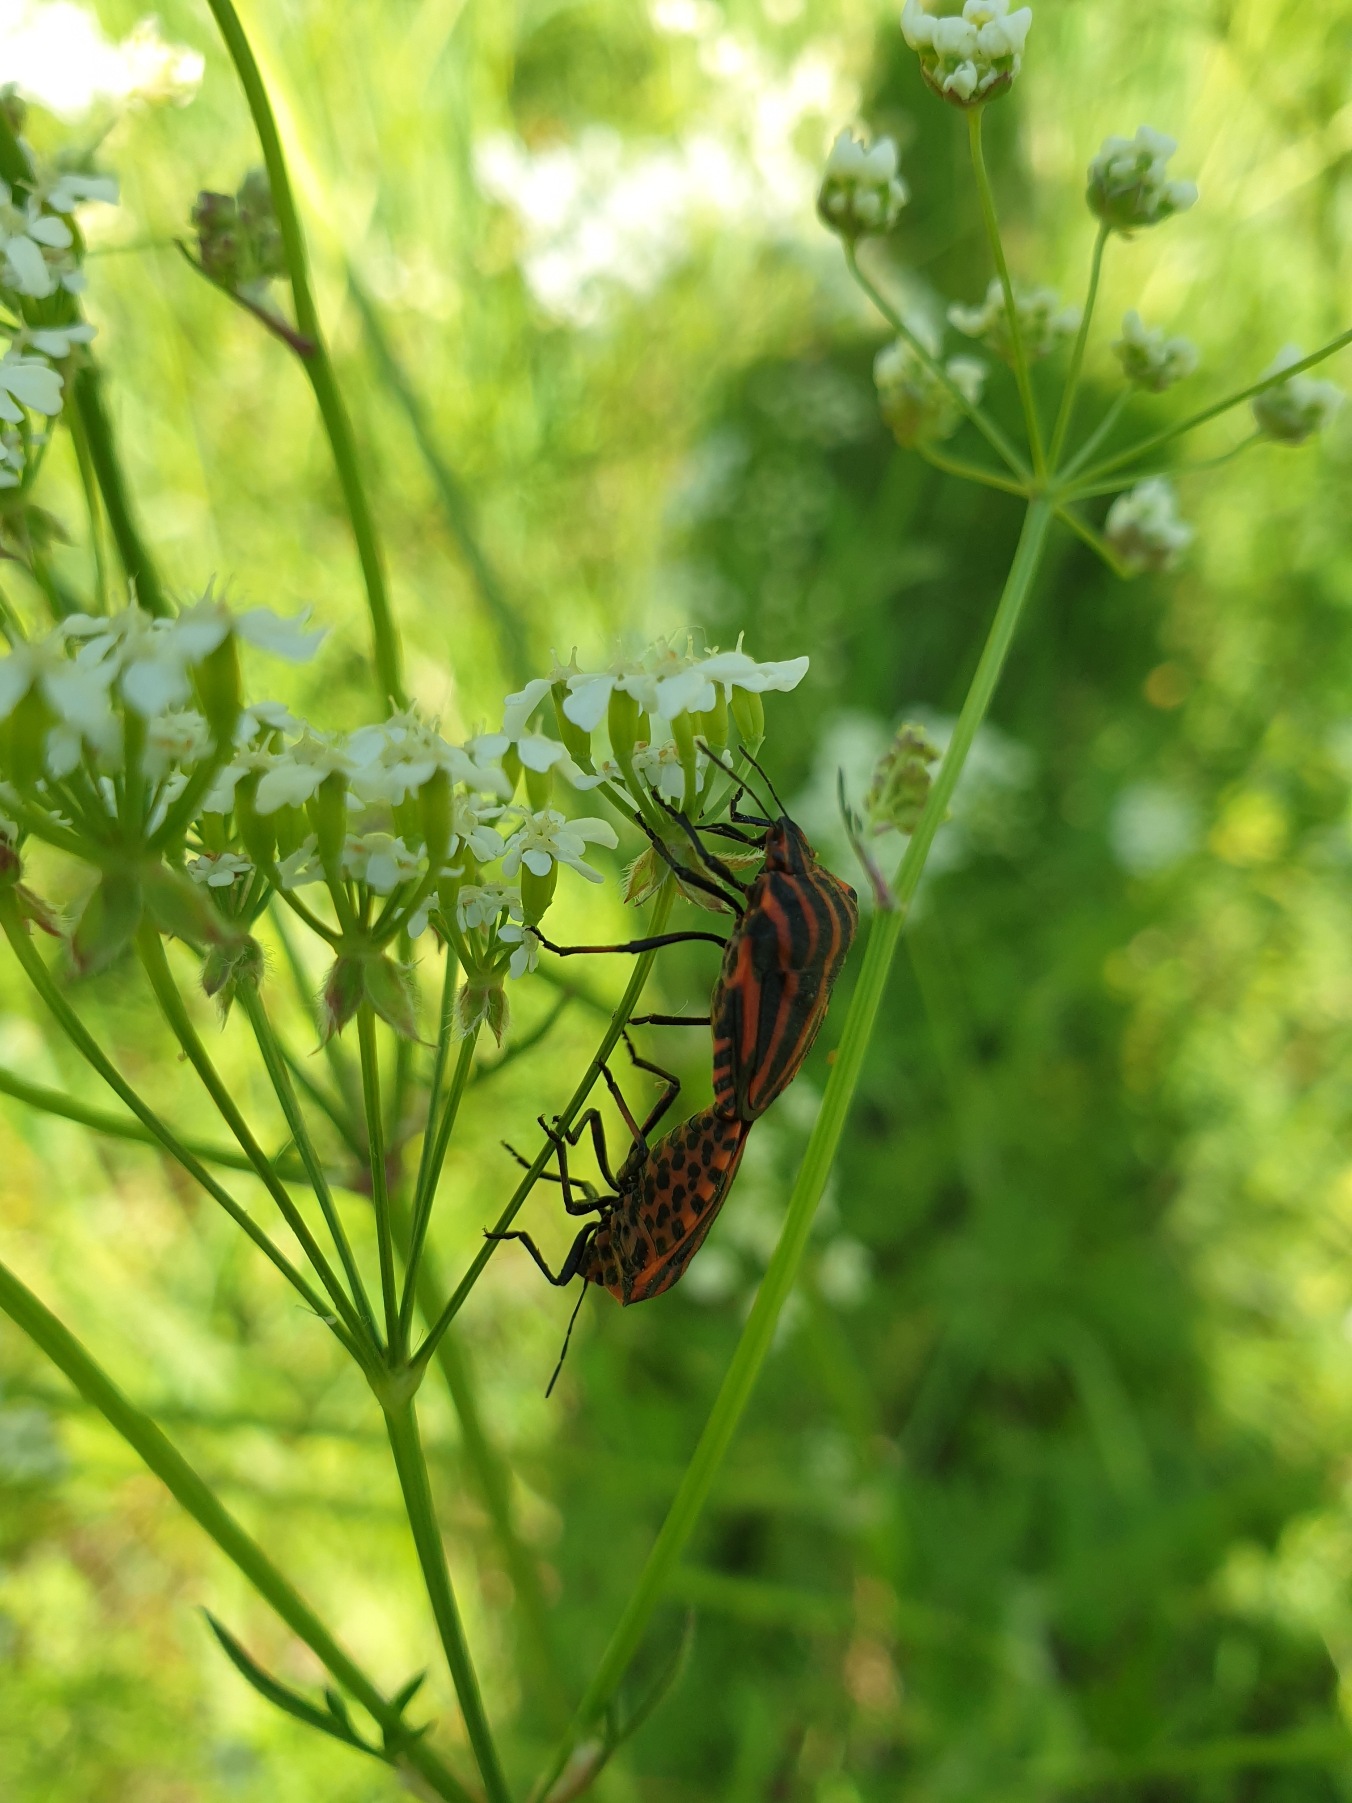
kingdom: Animalia
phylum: Arthropoda
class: Insecta
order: Hemiptera
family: Pentatomidae
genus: Graphosoma
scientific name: Graphosoma italicum
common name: Stribetæge
